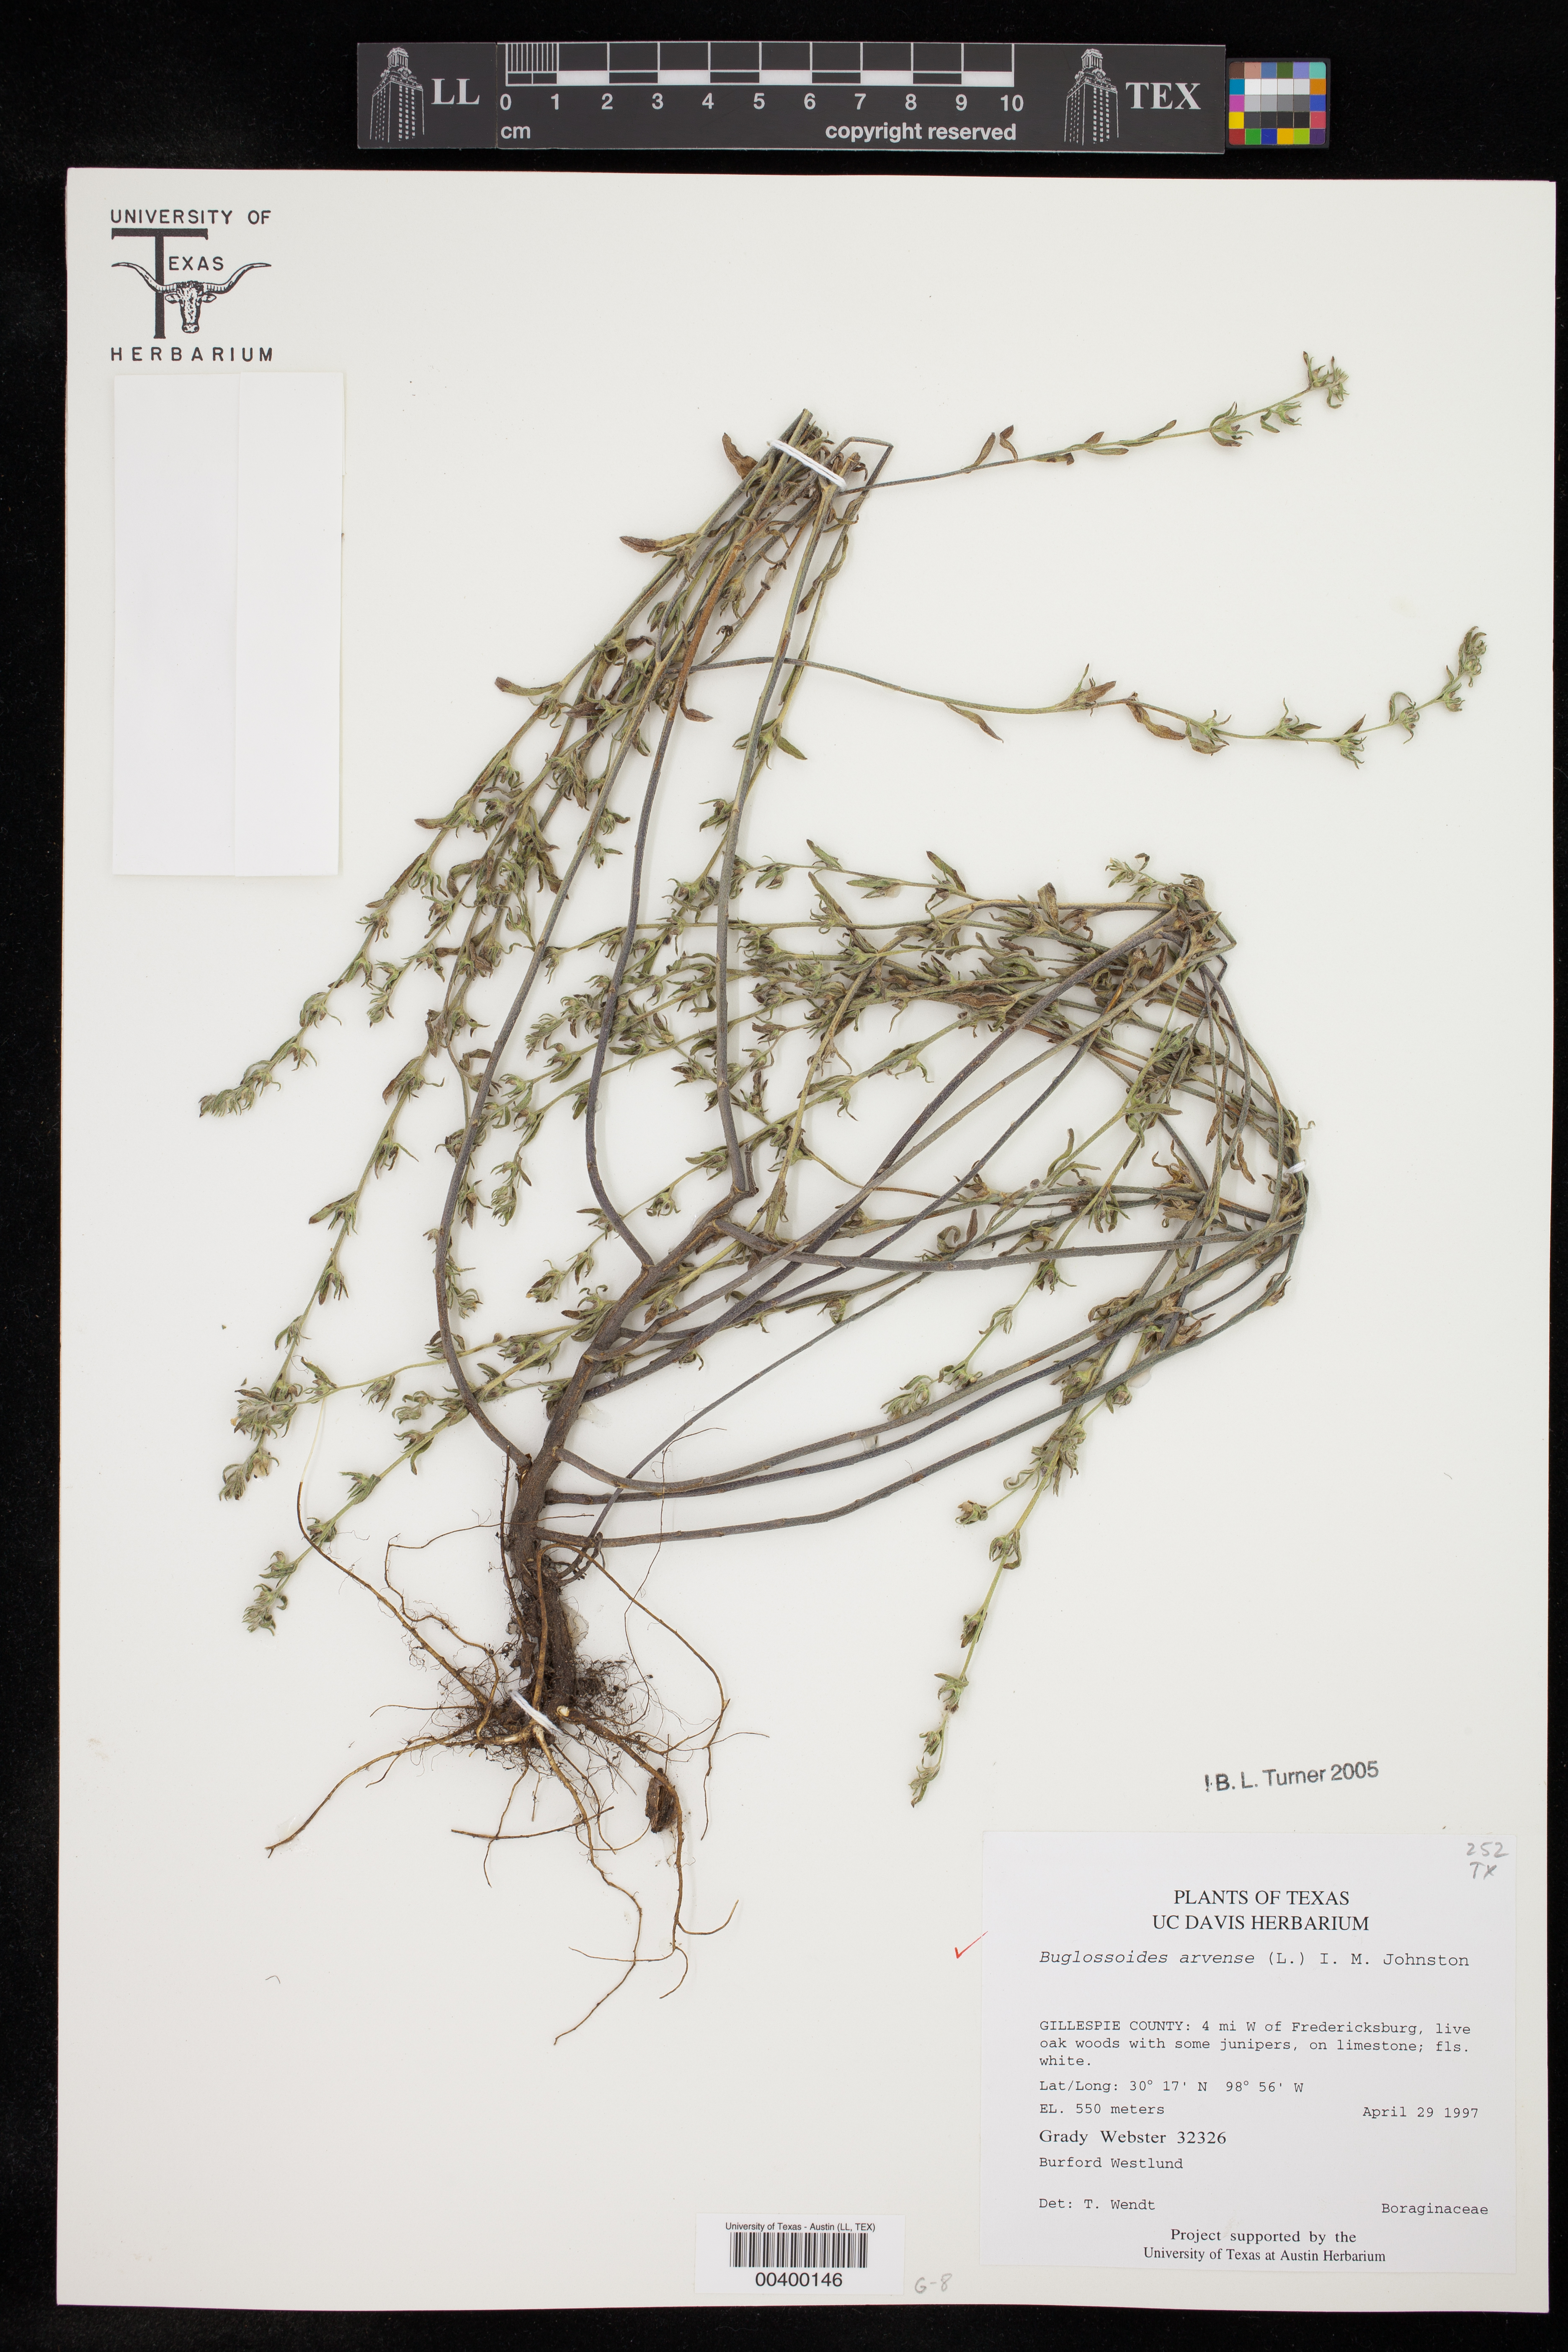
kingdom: Plantae
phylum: Tracheophyta
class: Magnoliopsida
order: Boraginales
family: Boraginaceae
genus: Buglossoides
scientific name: Buglossoides arvensis
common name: Corn gromwell
